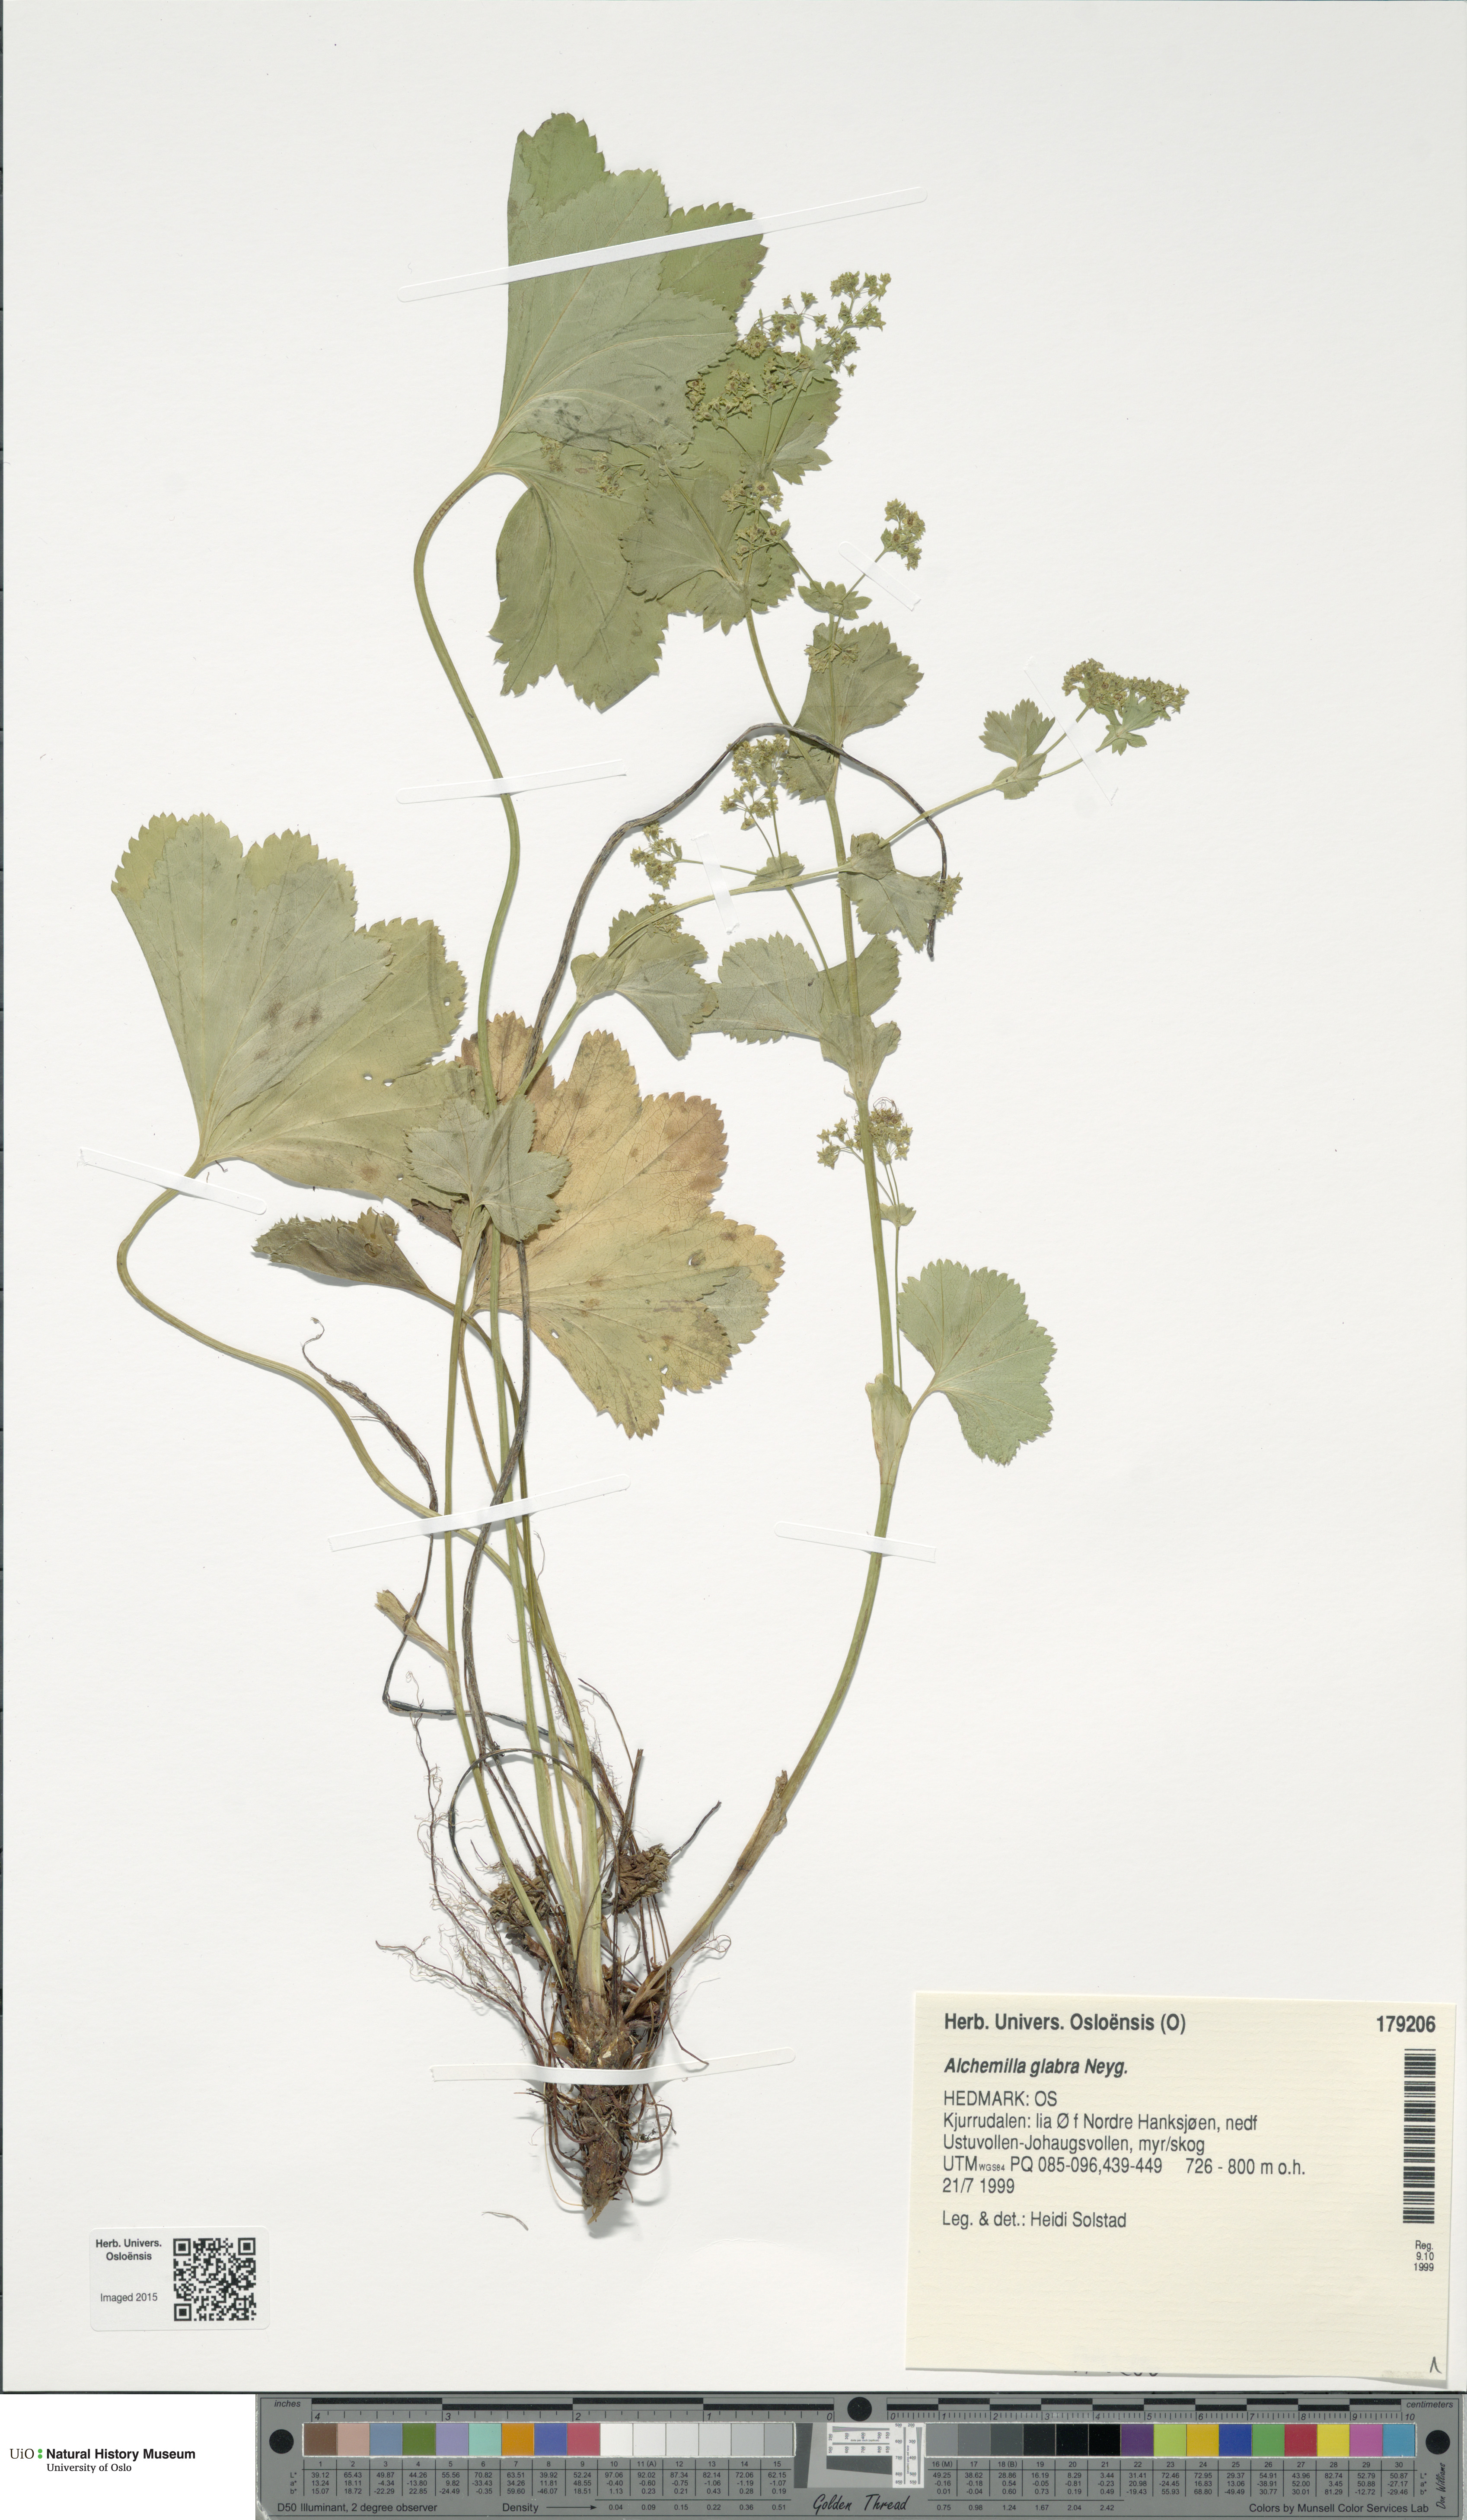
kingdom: Plantae
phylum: Tracheophyta
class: Magnoliopsida
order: Rosales
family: Rosaceae
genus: Alchemilla
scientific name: Alchemilla glabra
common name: Smooth lady's-mantle
